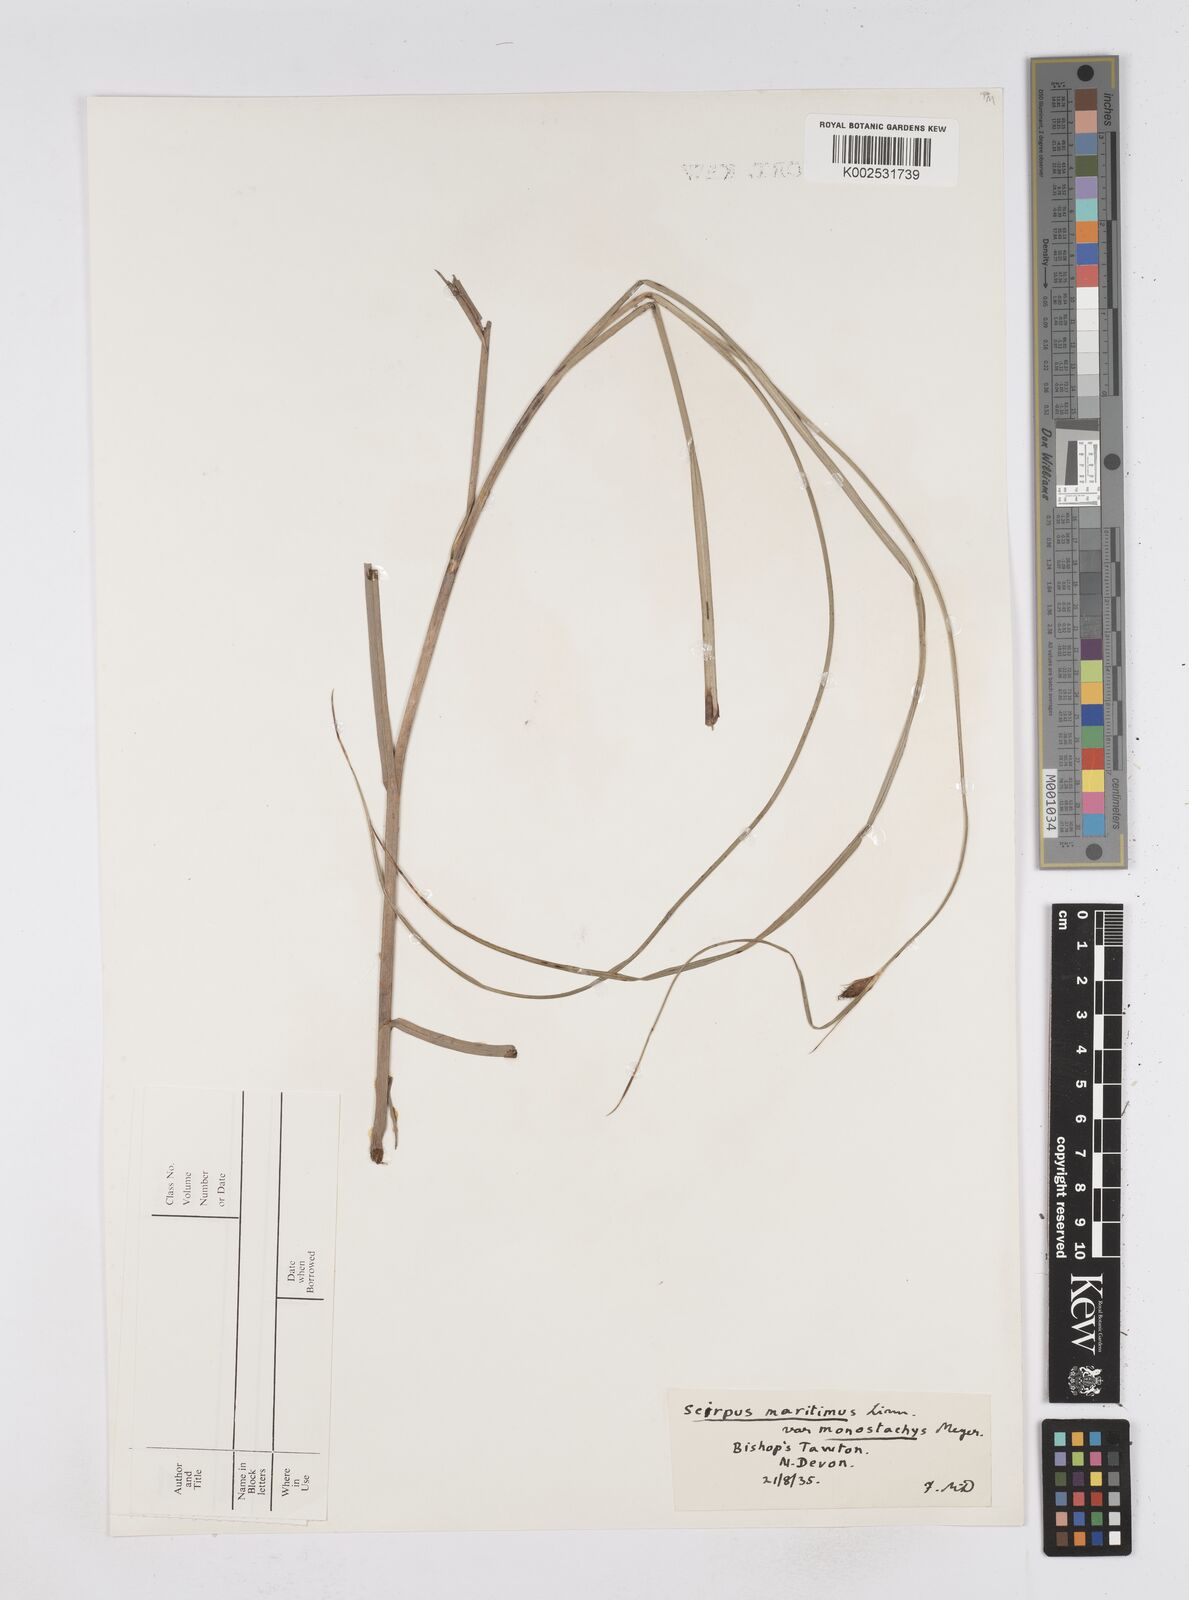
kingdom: Plantae
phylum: Tracheophyta
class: Liliopsida
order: Poales
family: Cyperaceae
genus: Bolboschoenus
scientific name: Bolboschoenus maritimus
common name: Sea club-rush
